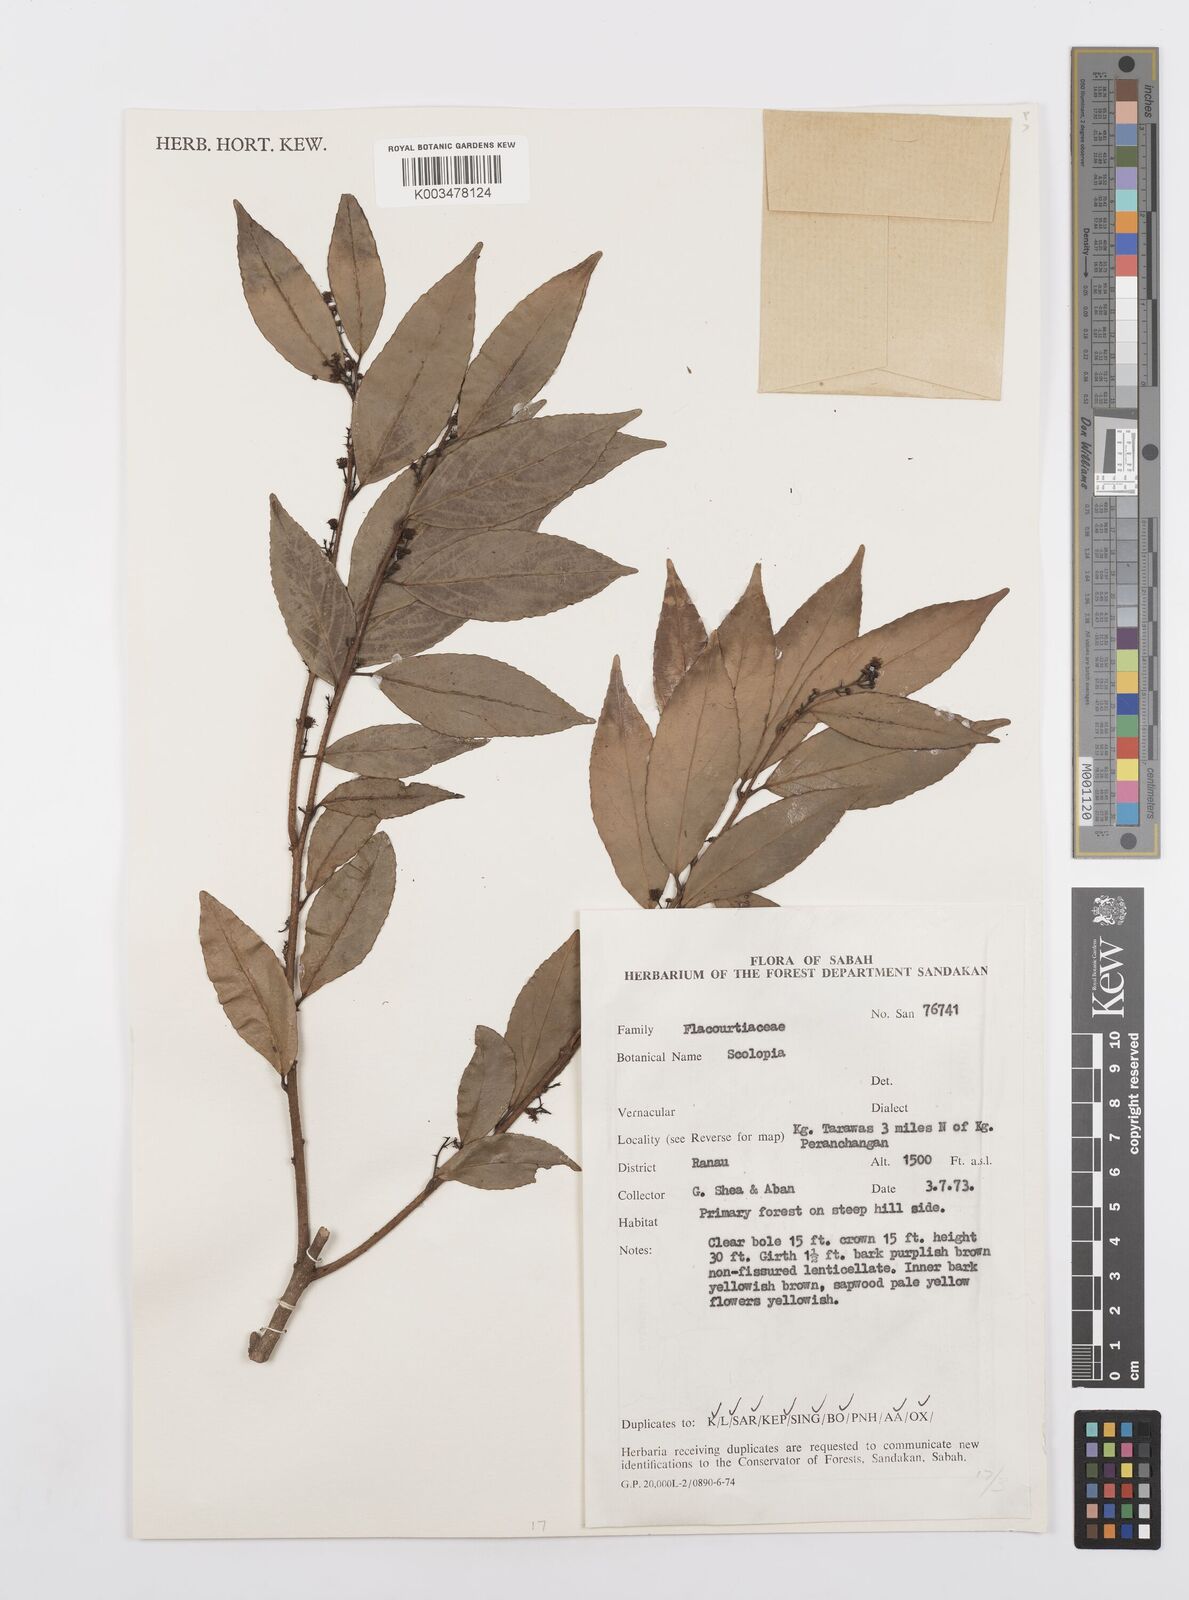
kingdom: Plantae
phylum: Tracheophyta
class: Magnoliopsida
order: Malpighiales
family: Salicaceae
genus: Scolopia
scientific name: Scolopia
